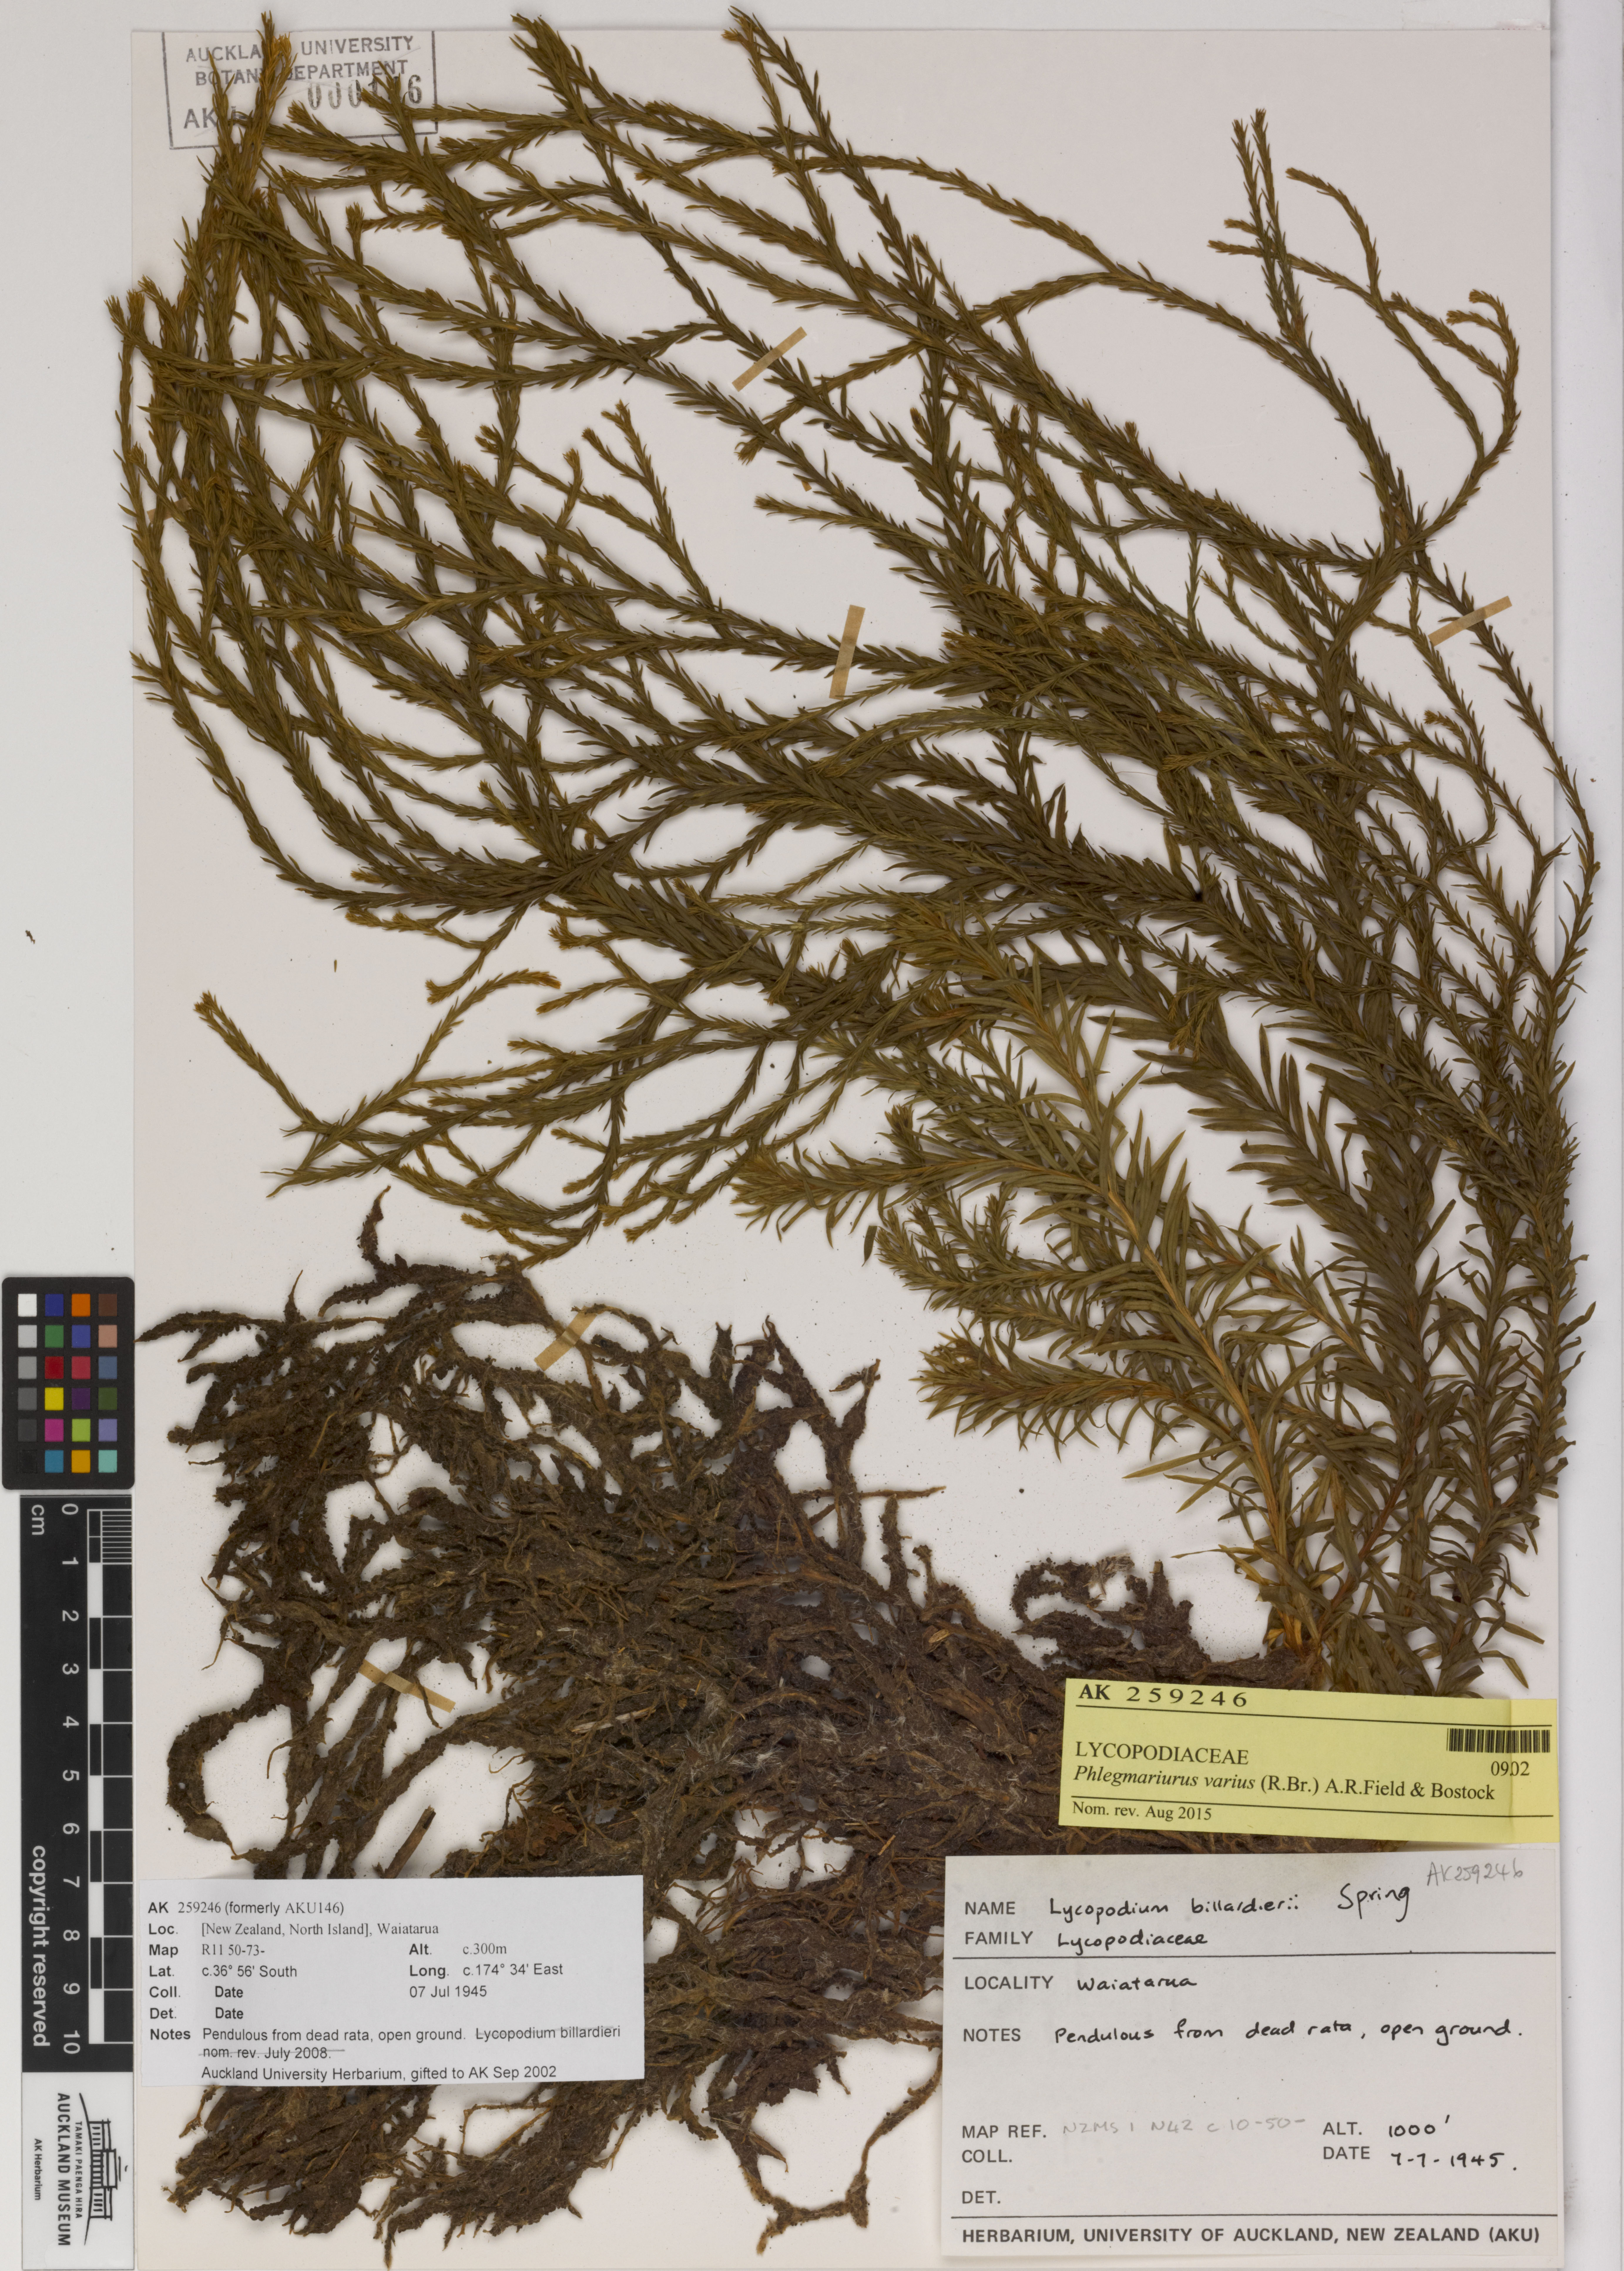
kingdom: Plantae
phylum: Tracheophyta
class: Lycopodiopsida
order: Lycopodiales
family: Lycopodiaceae
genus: Phlegmariurus
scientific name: Phlegmariurus
